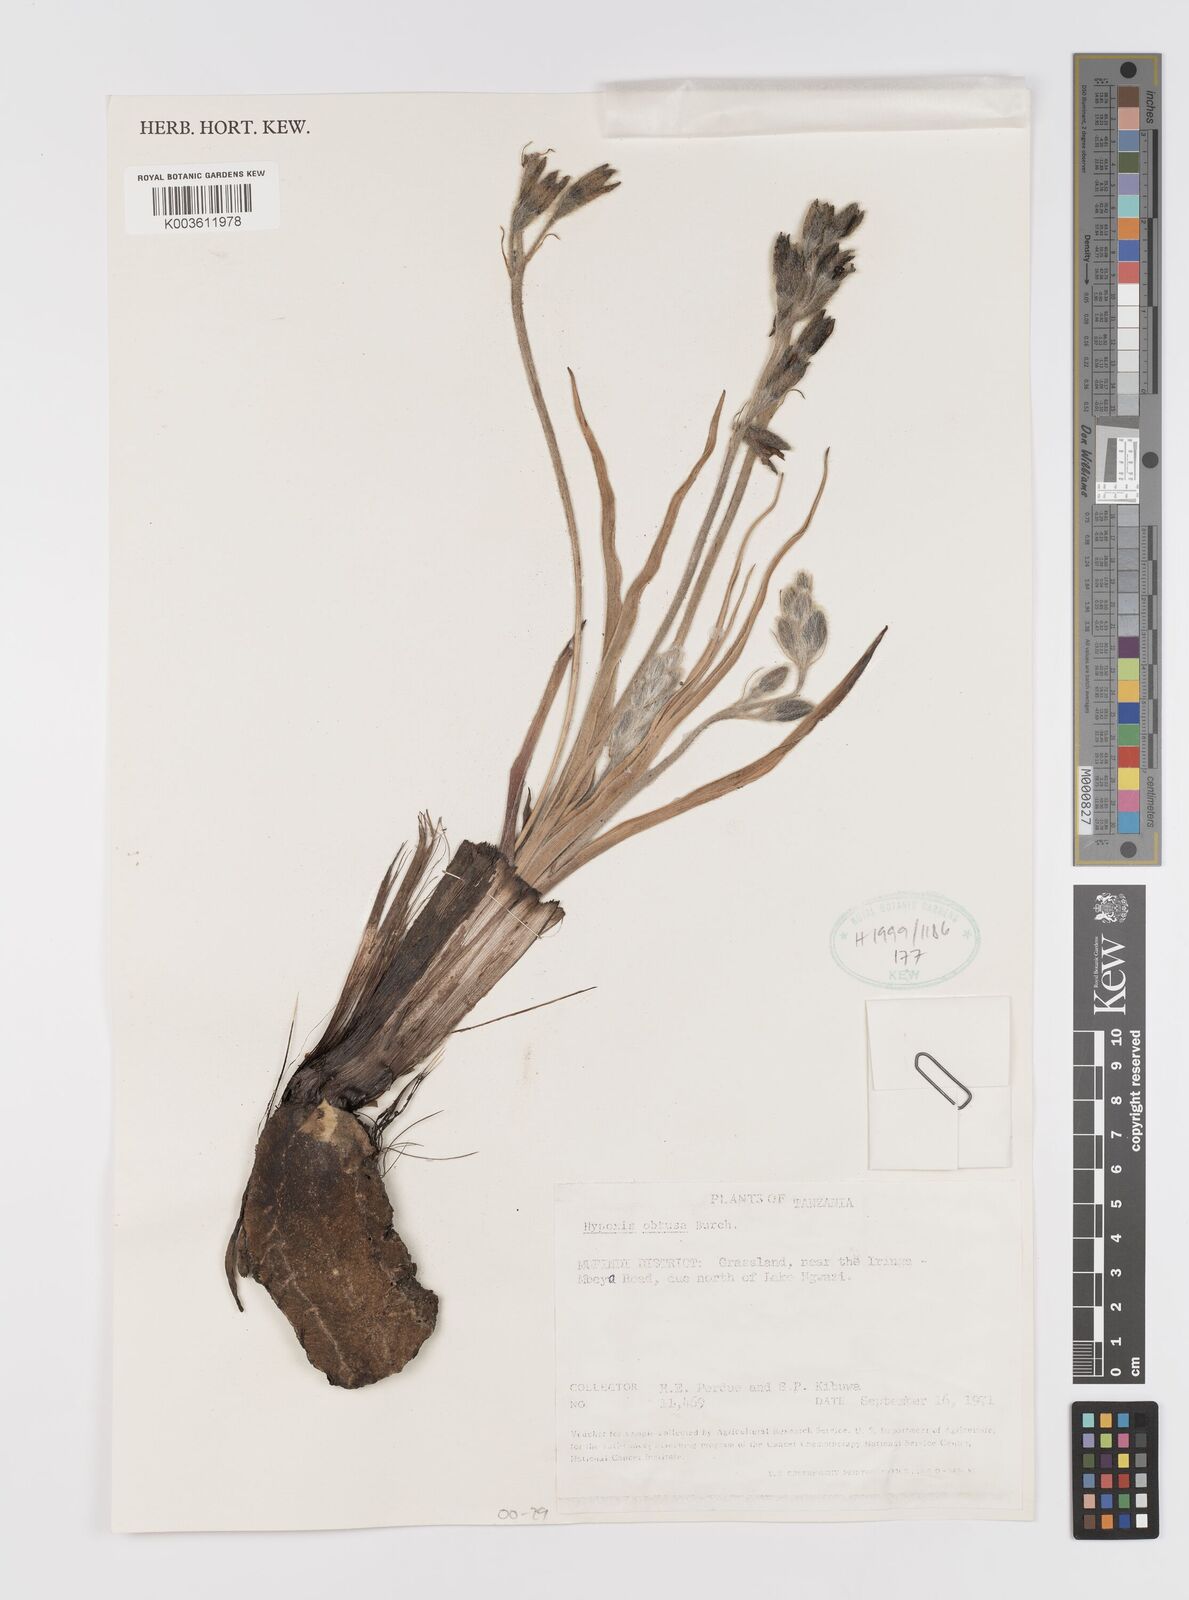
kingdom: Plantae
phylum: Tracheophyta
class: Liliopsida
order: Asparagales
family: Hypoxidaceae
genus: Hypoxis
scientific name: Hypoxis obtusa
